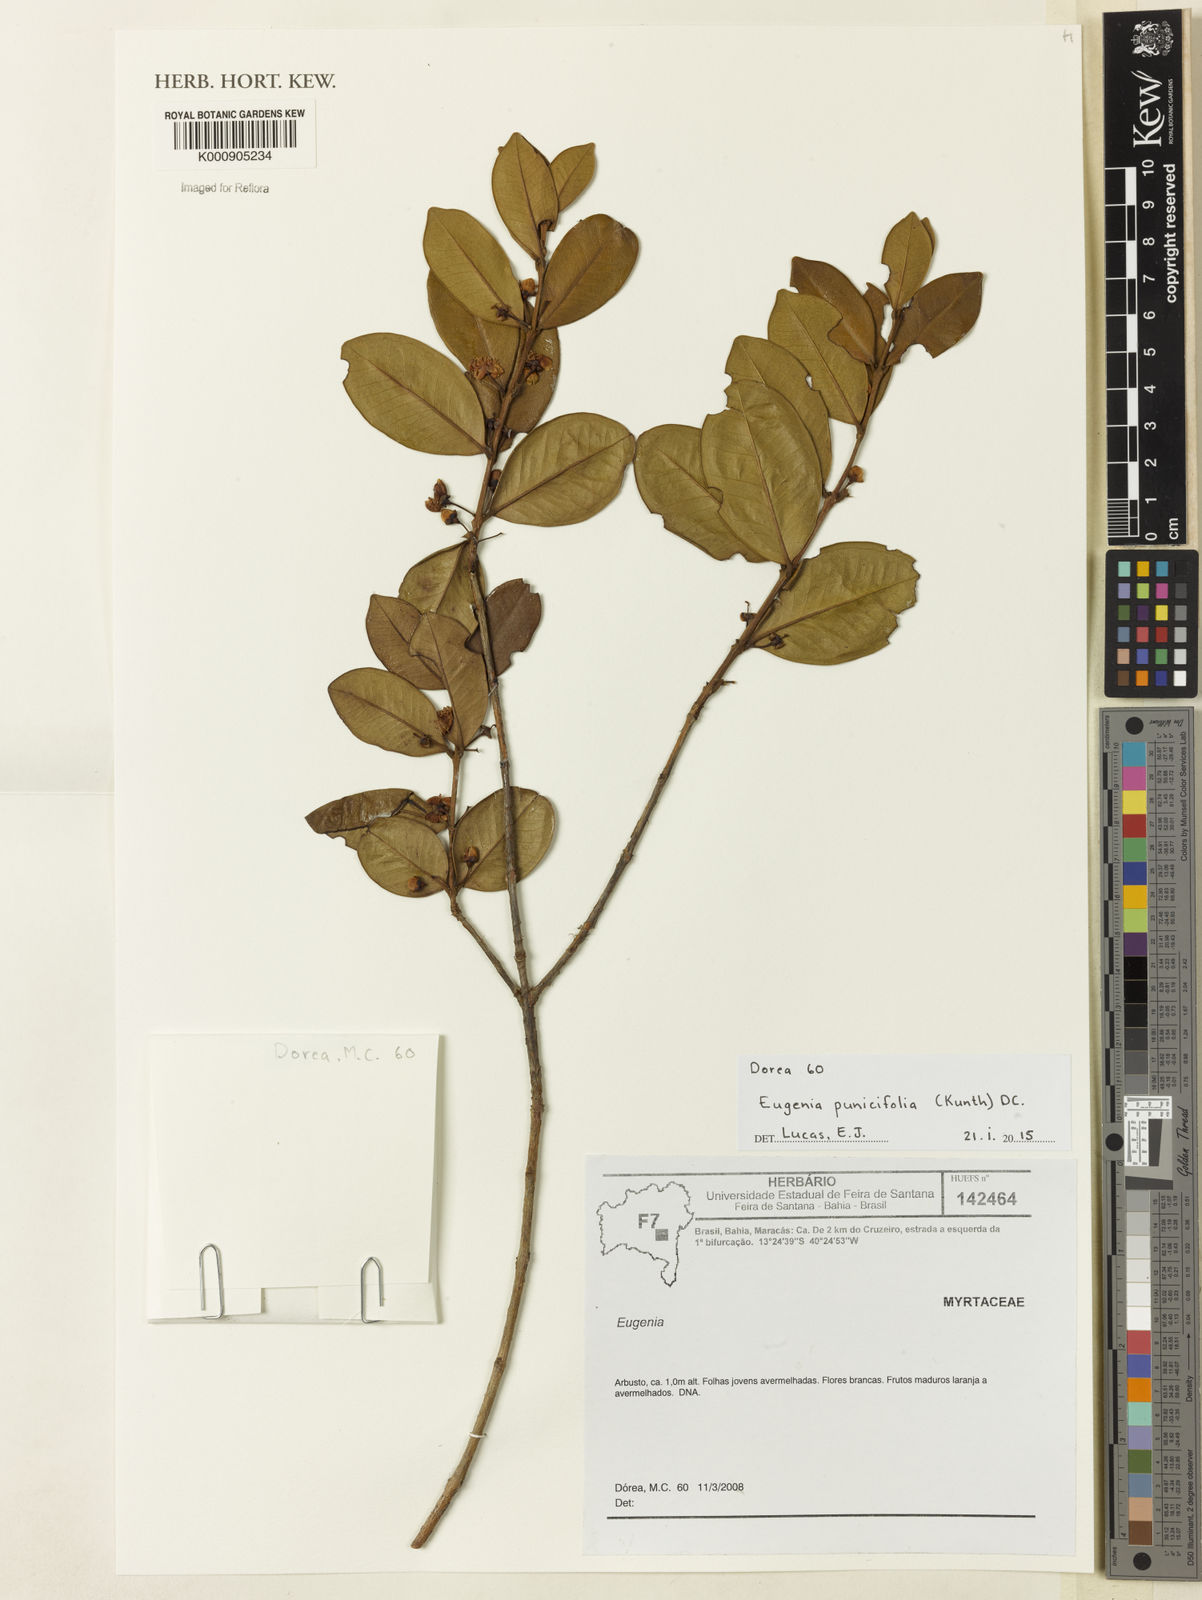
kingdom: Plantae
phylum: Tracheophyta
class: Magnoliopsida
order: Myrtales
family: Myrtaceae
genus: Eugenia
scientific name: Eugenia punicifolia
